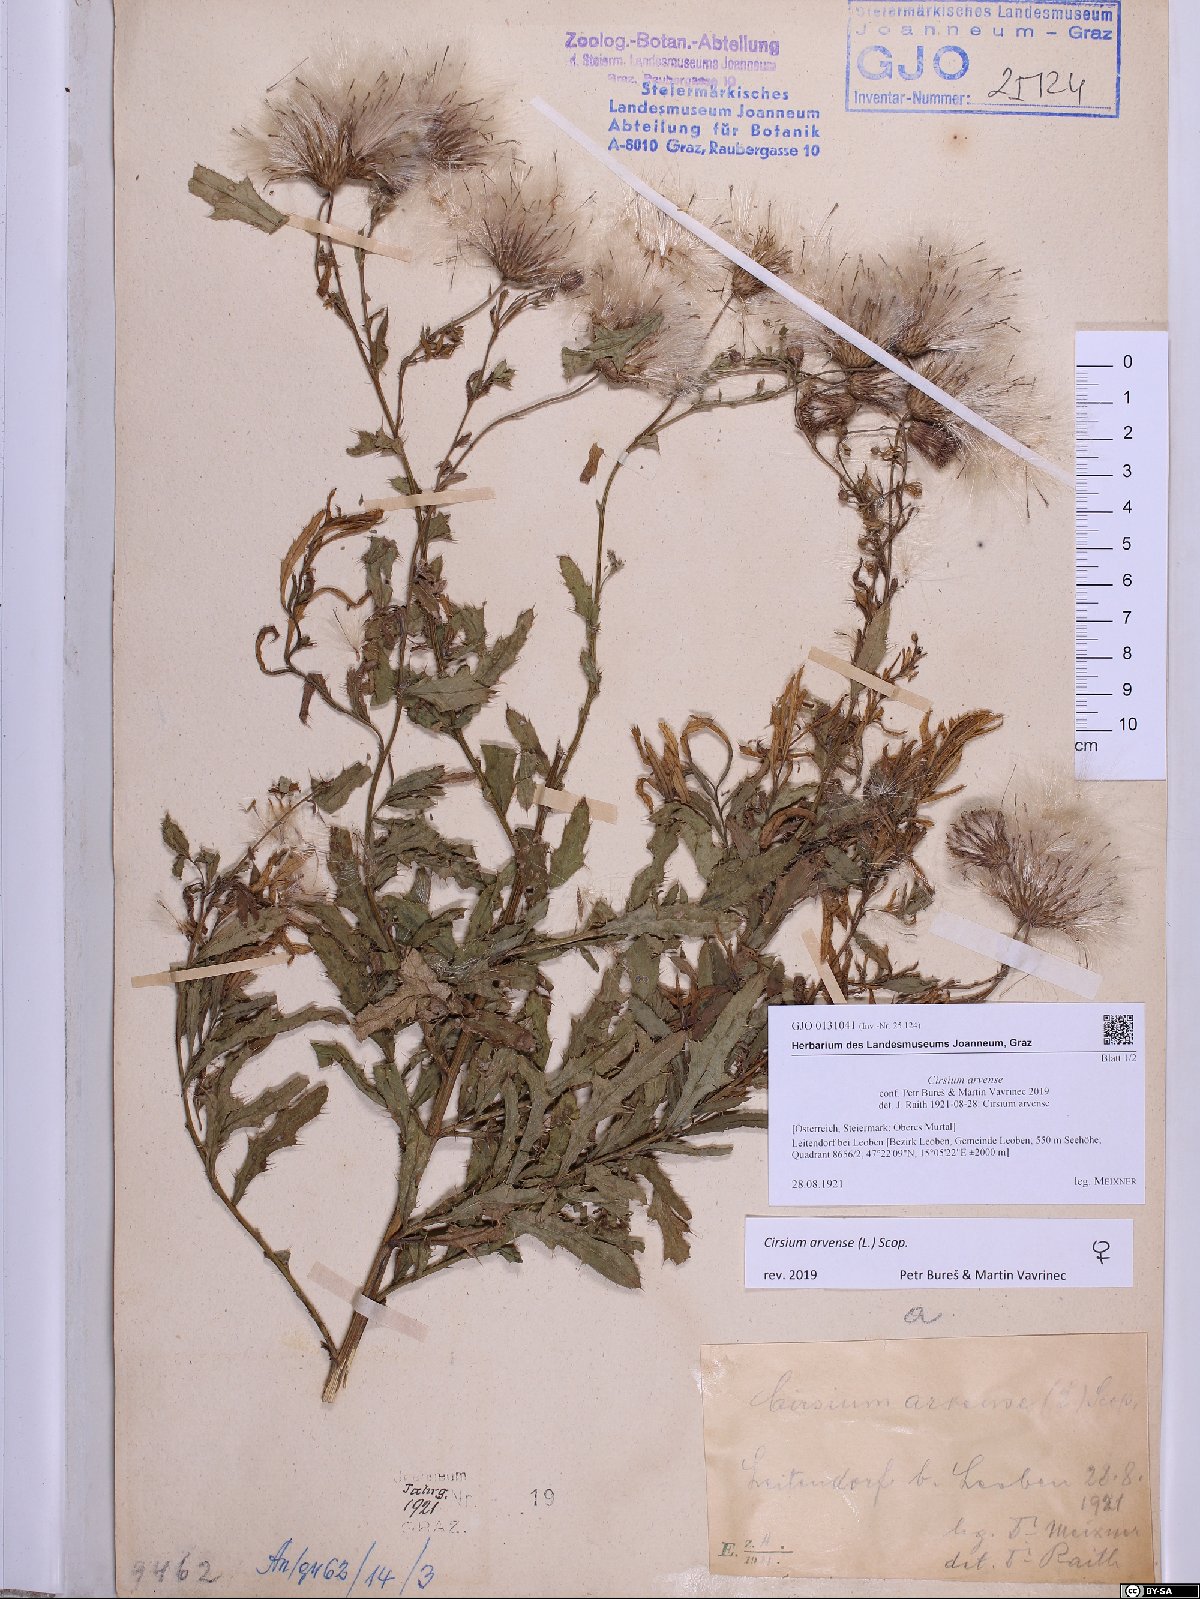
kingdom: Plantae
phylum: Tracheophyta
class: Magnoliopsida
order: Asterales
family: Asteraceae
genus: Cirsium
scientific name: Cirsium arvense
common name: Creeping thistle
